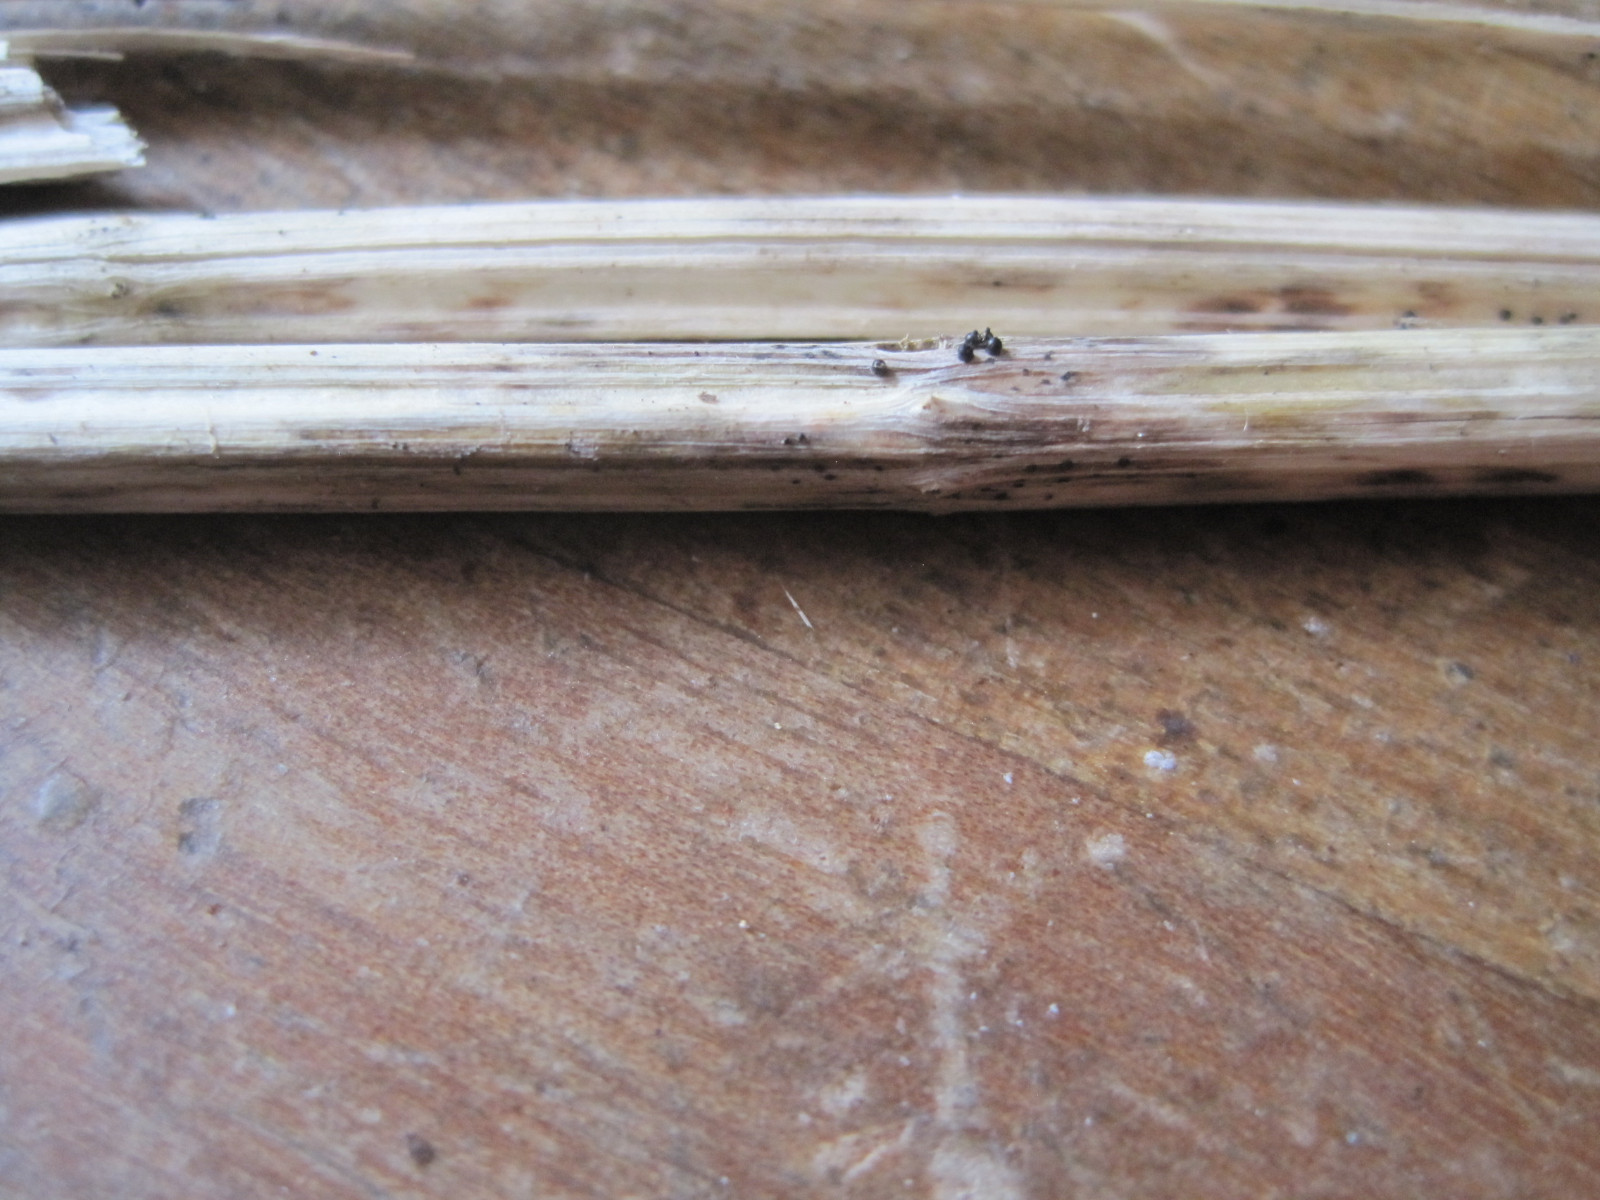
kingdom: Fungi
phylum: Ascomycota
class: Dothideomycetes
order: Pleosporales
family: Leptosphaeriaceae
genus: Leptosphaeria
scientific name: Leptosphaeria acuta
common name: spids kulkegle
